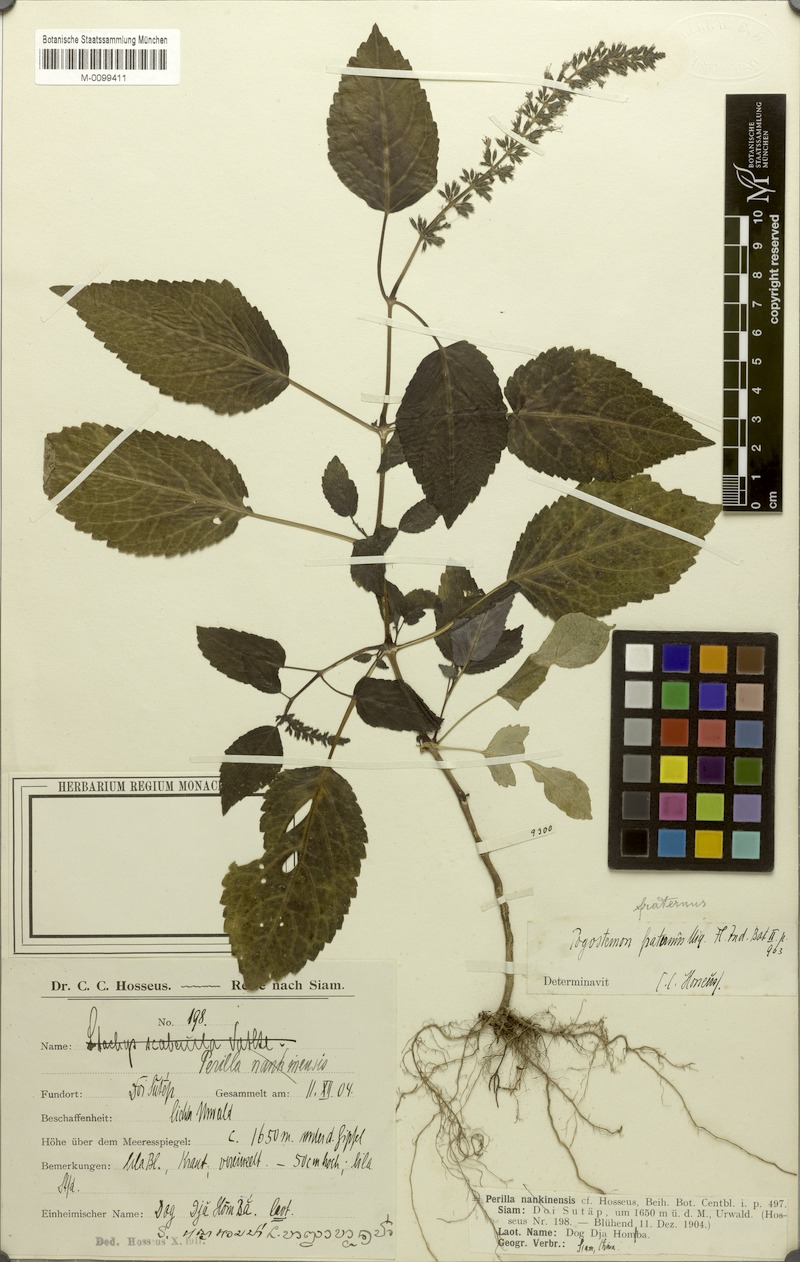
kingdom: Plantae
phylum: Tracheophyta
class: Magnoliopsida
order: Lamiales
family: Lamiaceae
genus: Pogostemon
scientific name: Pogostemon menthoides
